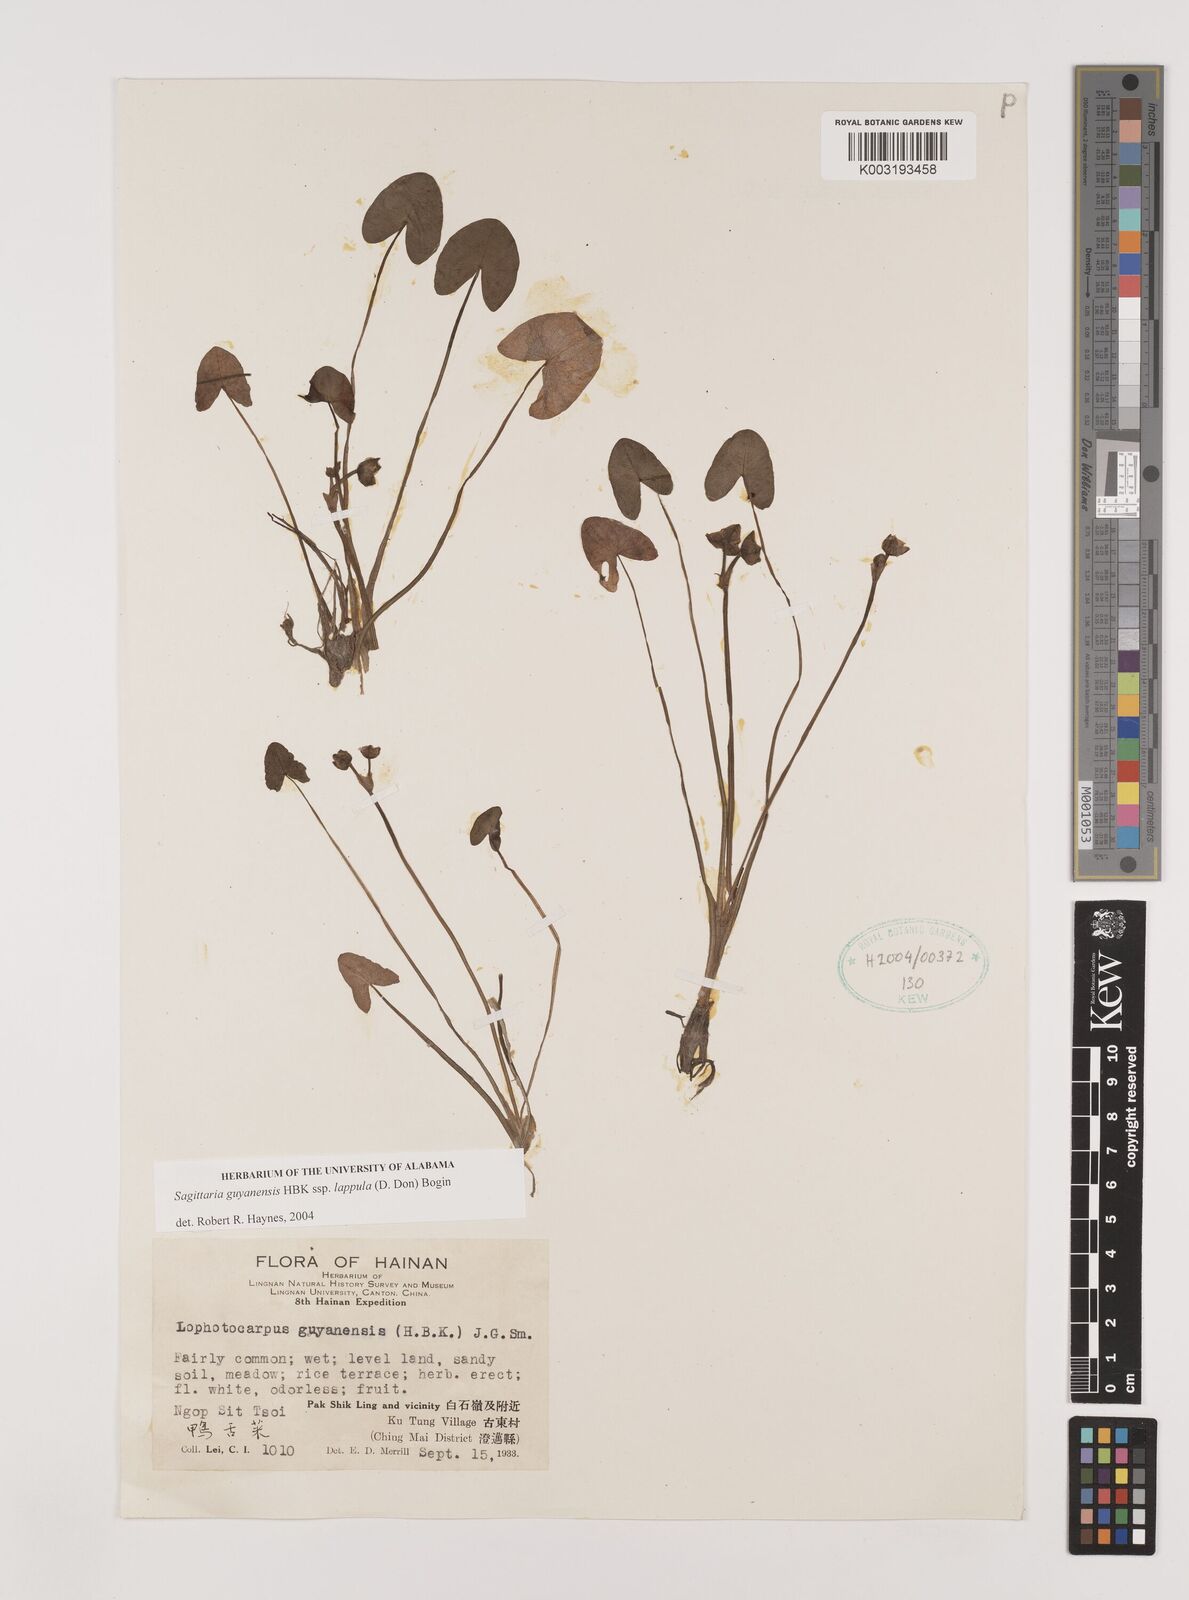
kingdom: Plantae
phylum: Tracheophyta
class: Liliopsida
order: Alismatales
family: Alismataceae
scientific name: Alismataceae
